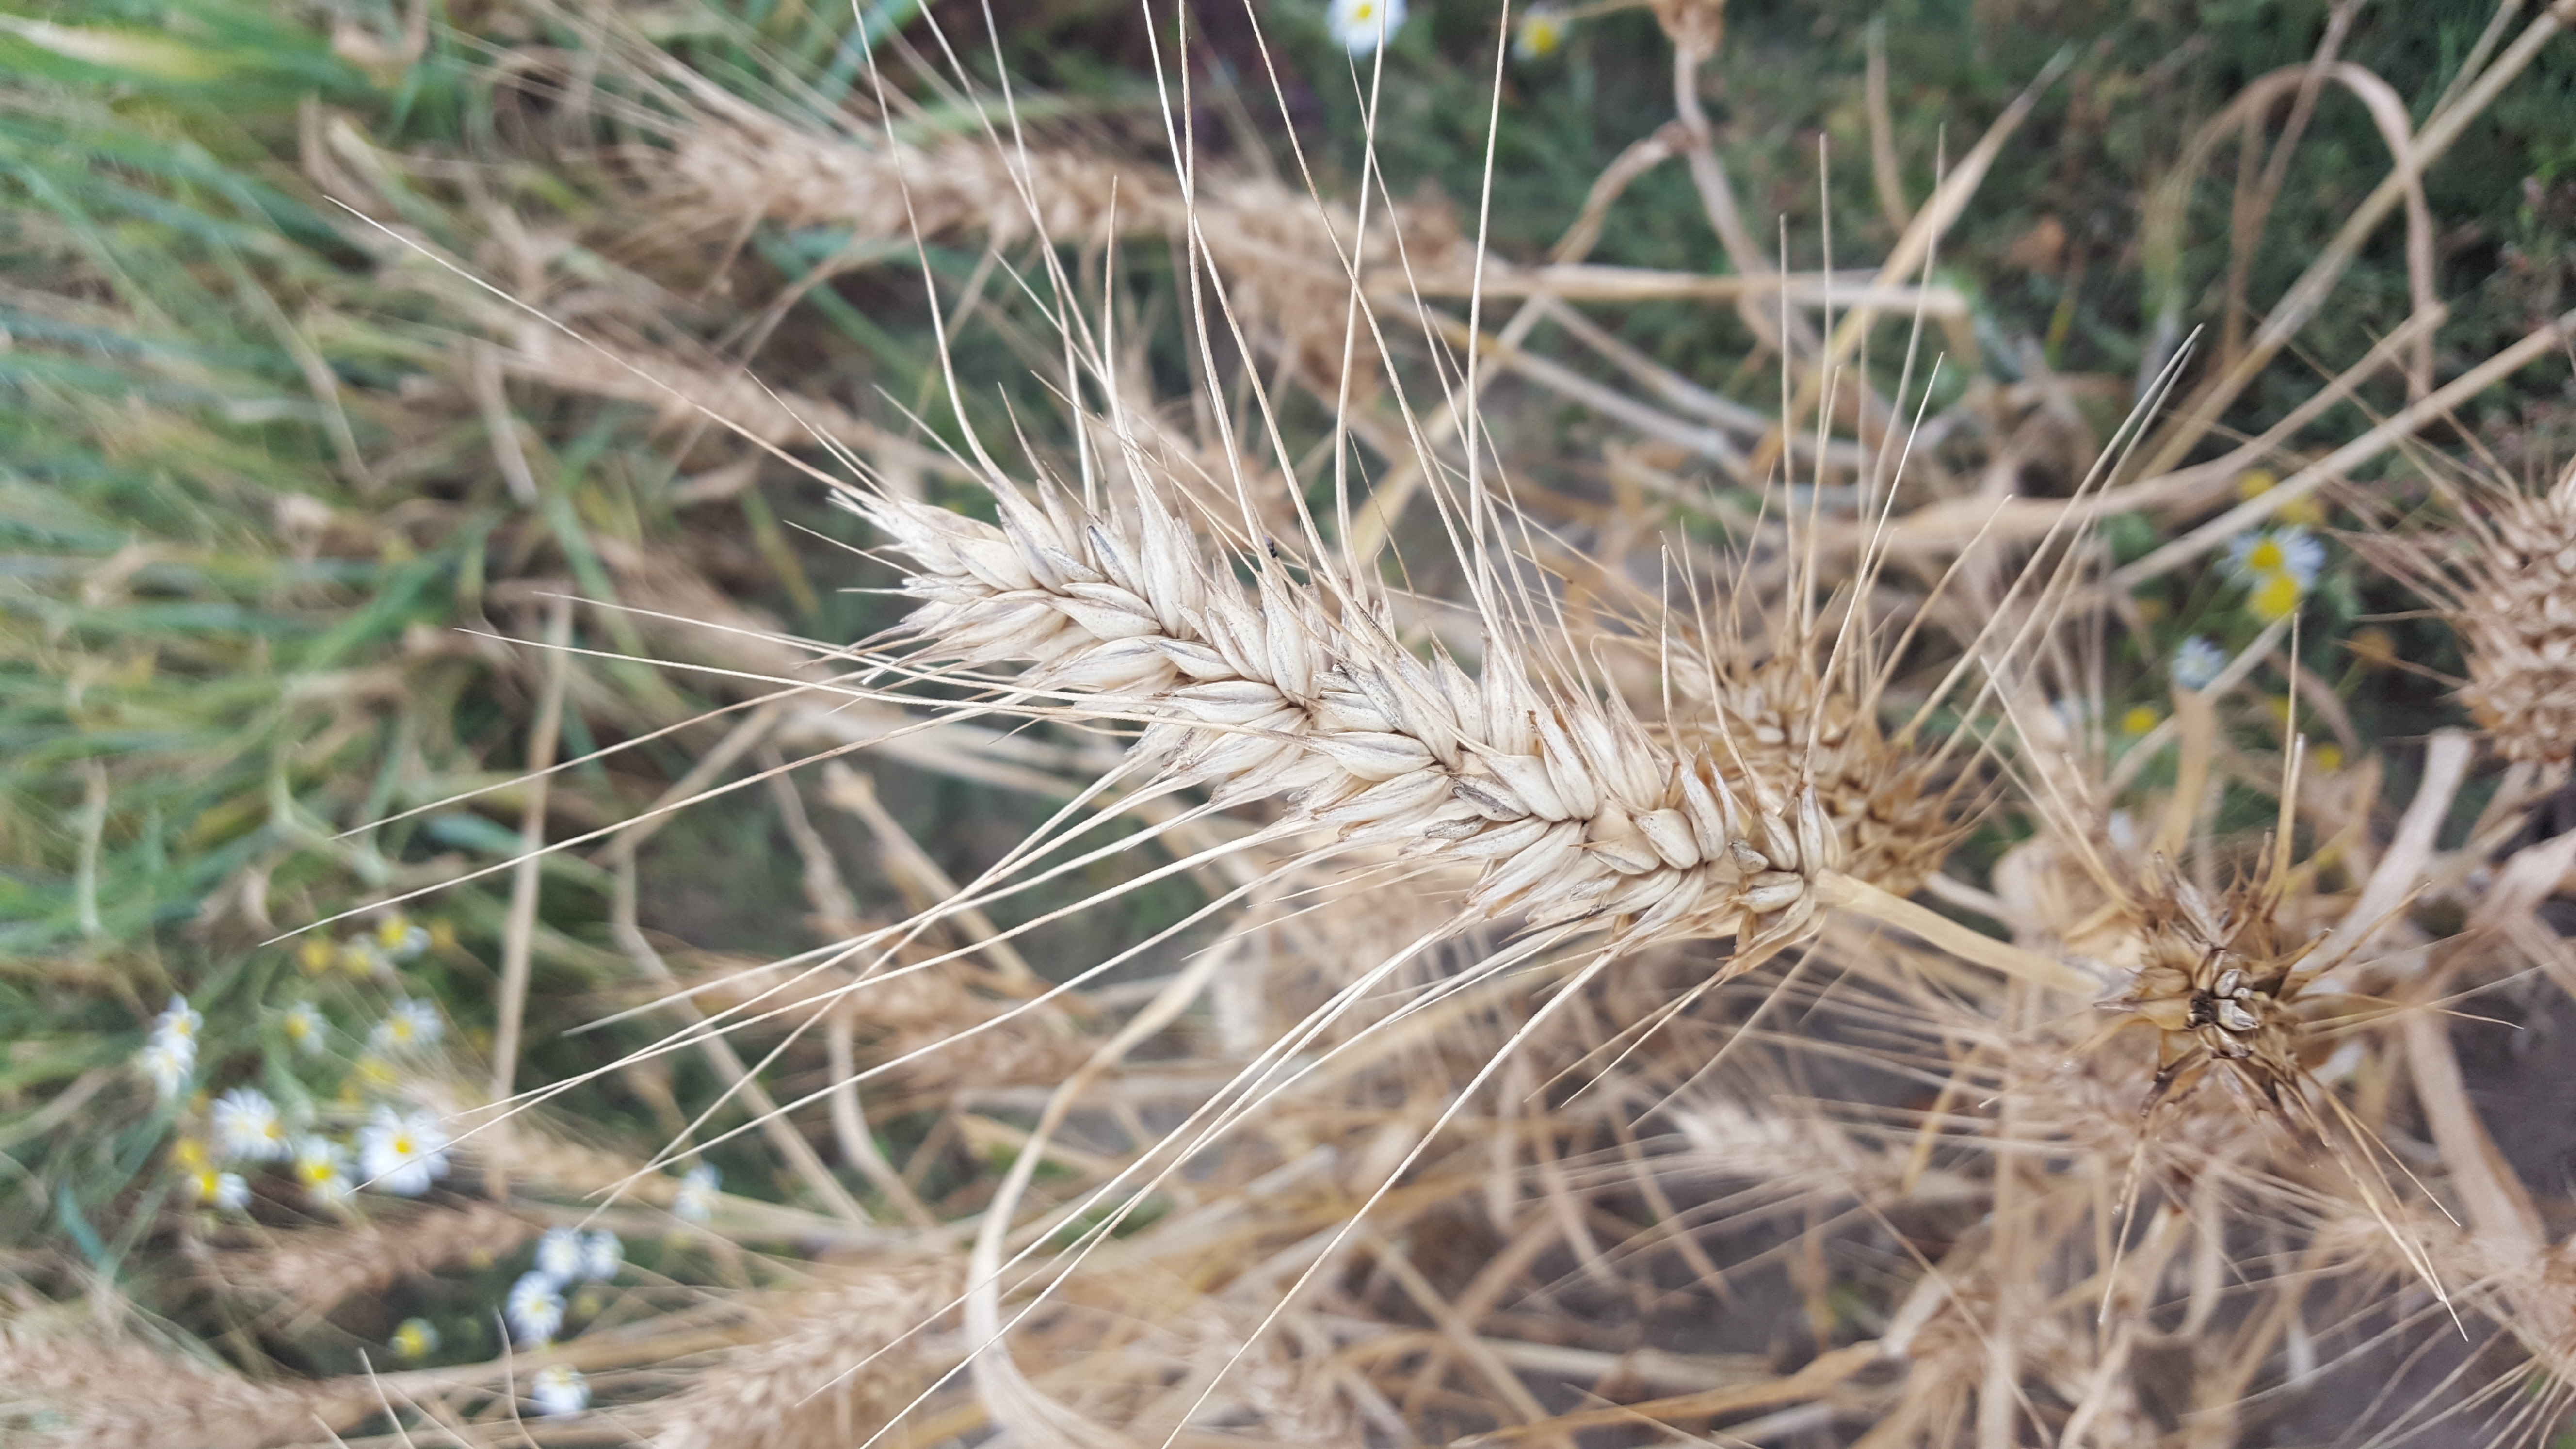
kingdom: Plantae
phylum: Tracheophyta
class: Liliopsida
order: Poales
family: Poaceae
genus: Triticum
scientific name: Triticum aestivum
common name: Common wheat
